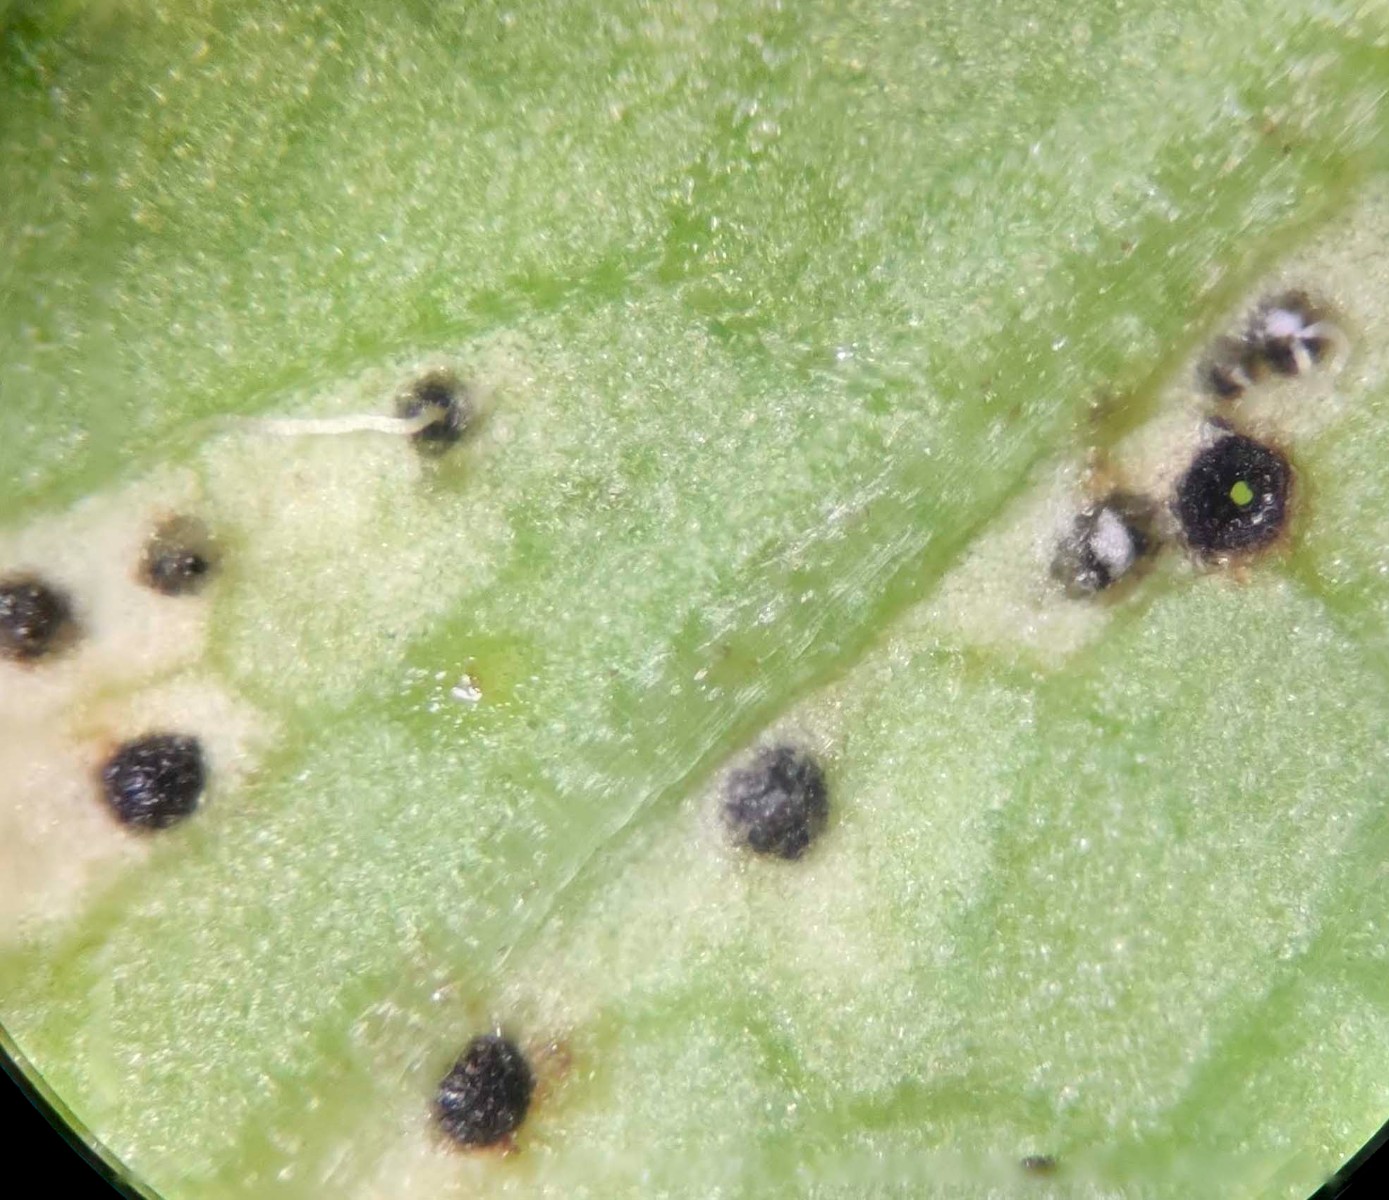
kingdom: Fungi
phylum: Ascomycota
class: Dothideomycetes
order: Mycosphaerellales
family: Mycosphaerellaceae
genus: Mycosphaerella
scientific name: Mycosphaerella podagrariae
